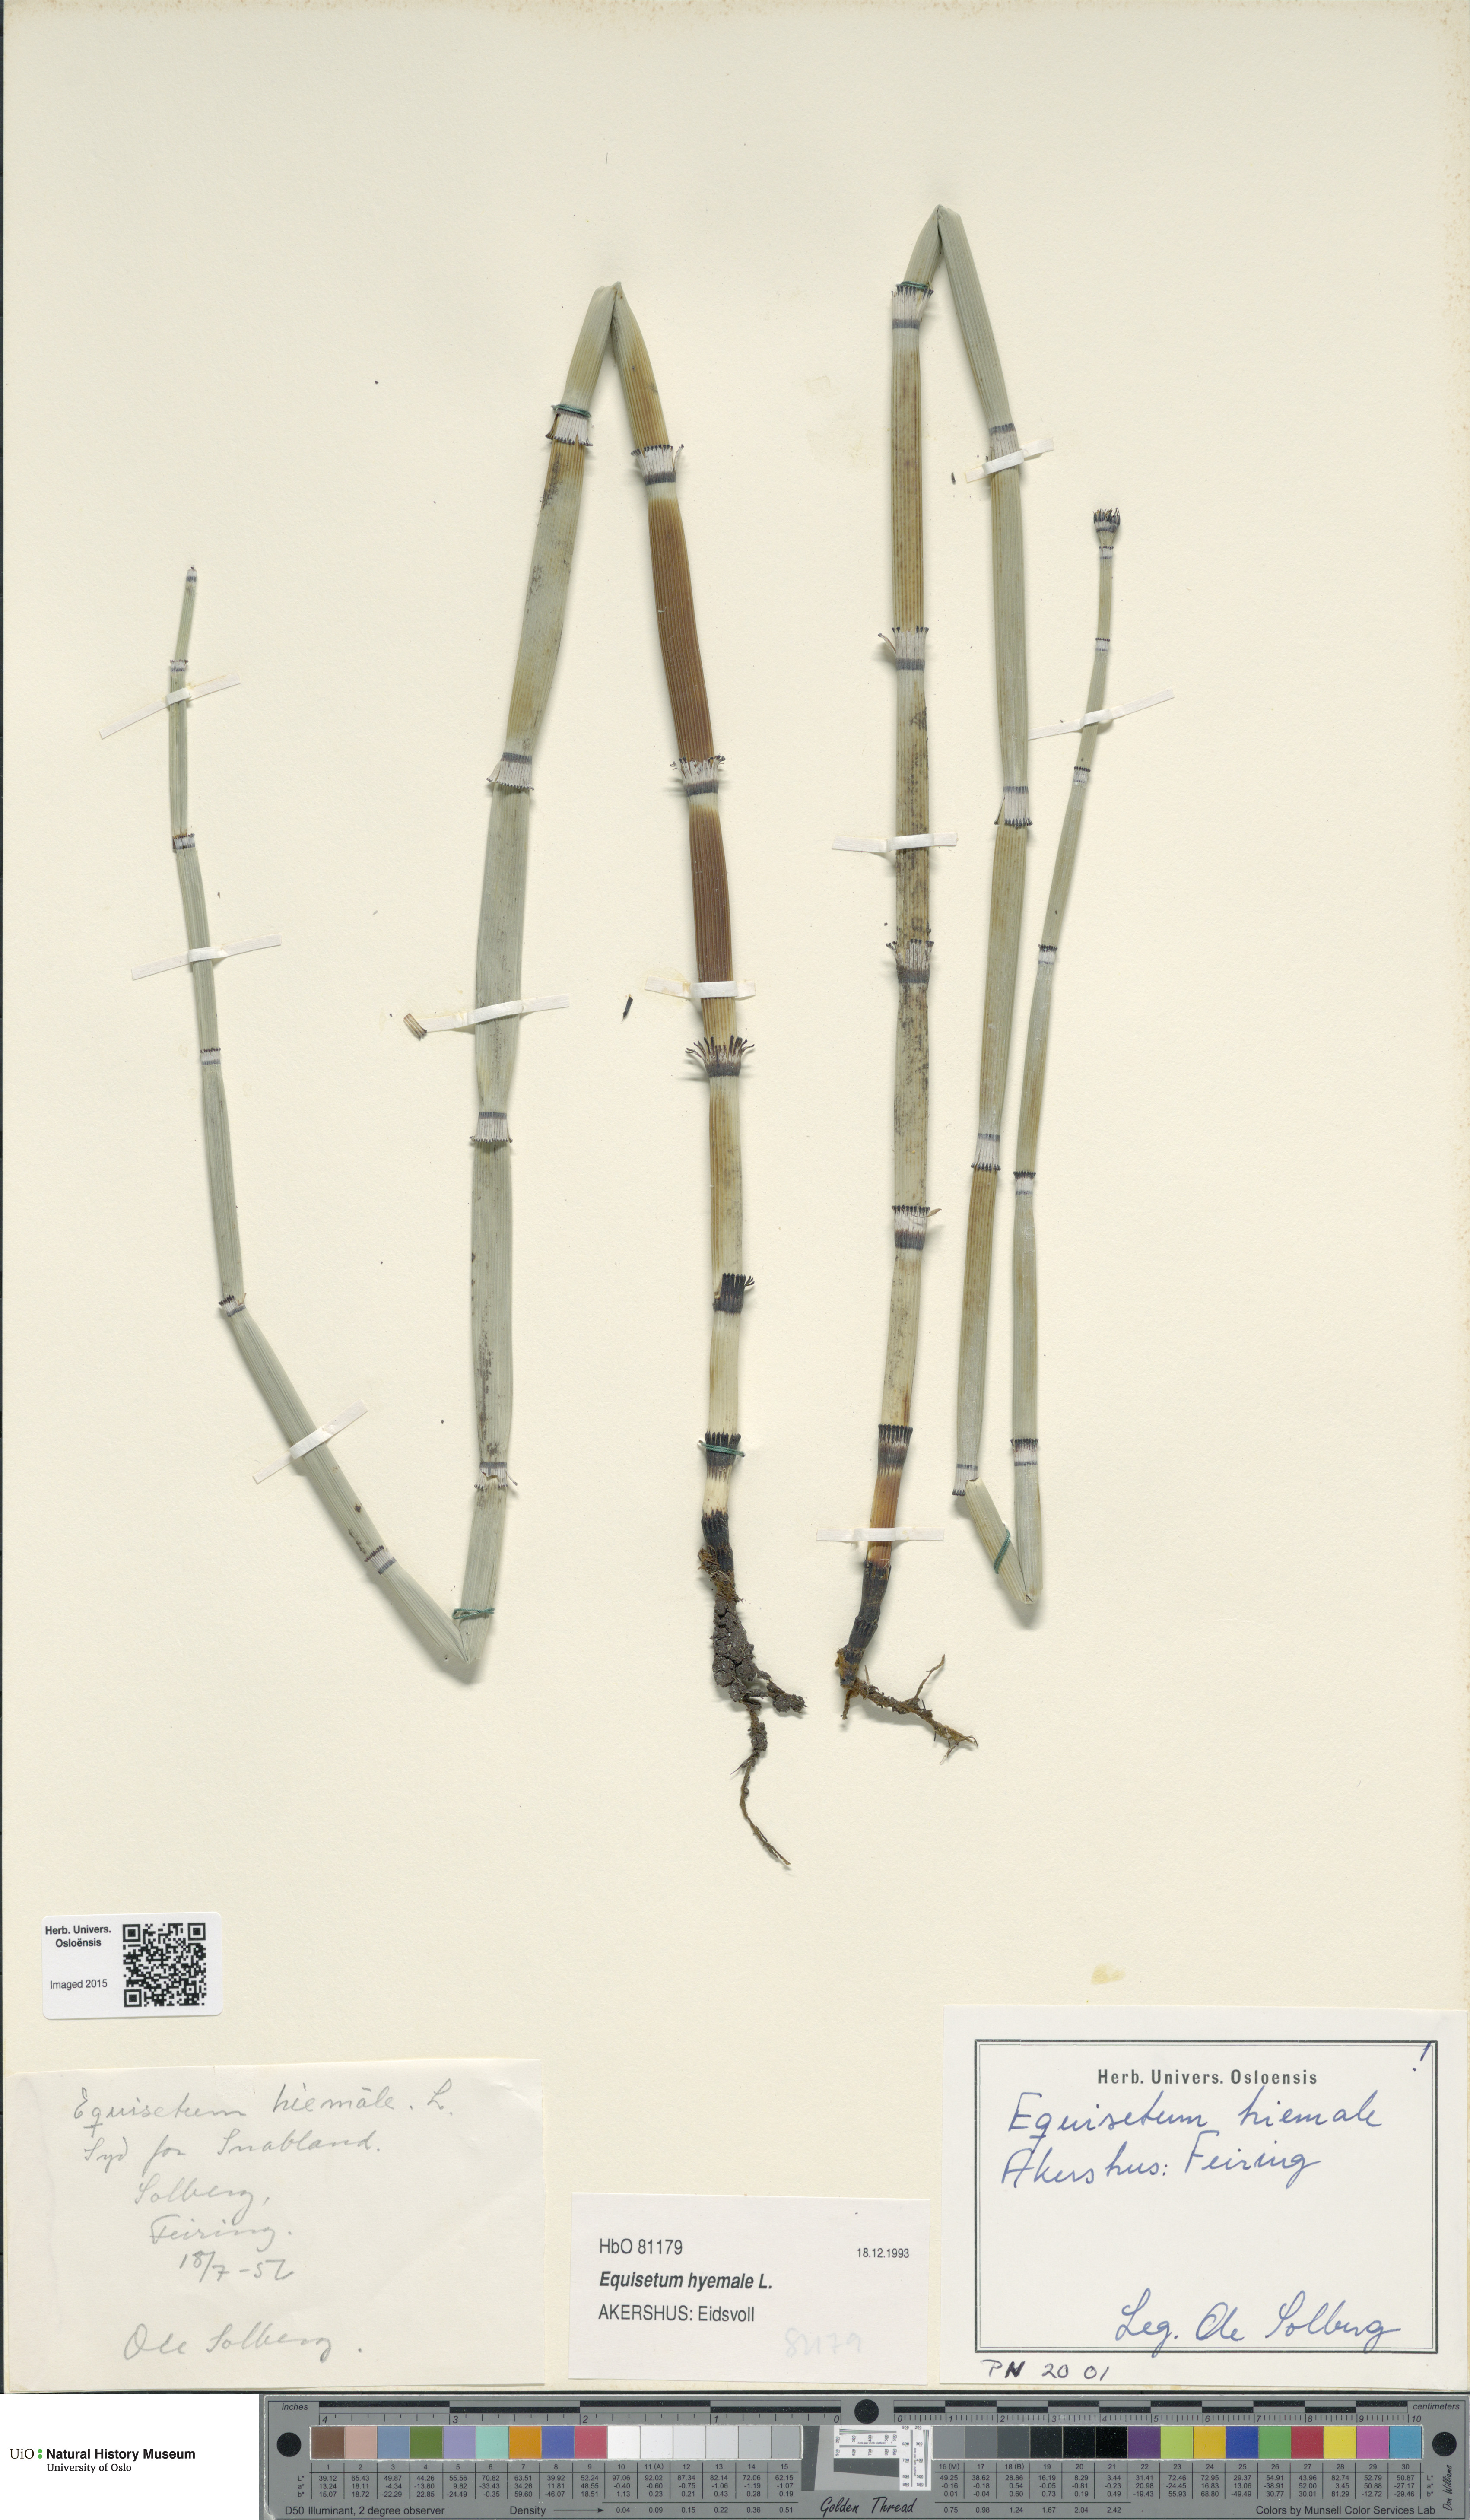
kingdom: Plantae
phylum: Tracheophyta
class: Polypodiopsida
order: Equisetales
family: Equisetaceae
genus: Equisetum
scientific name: Equisetum hyemale
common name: Rough horsetail
